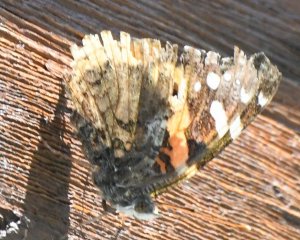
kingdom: Animalia
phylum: Arthropoda
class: Insecta
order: Lepidoptera
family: Nymphalidae
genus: Vanessa
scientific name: Vanessa atalanta
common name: Red Admiral
